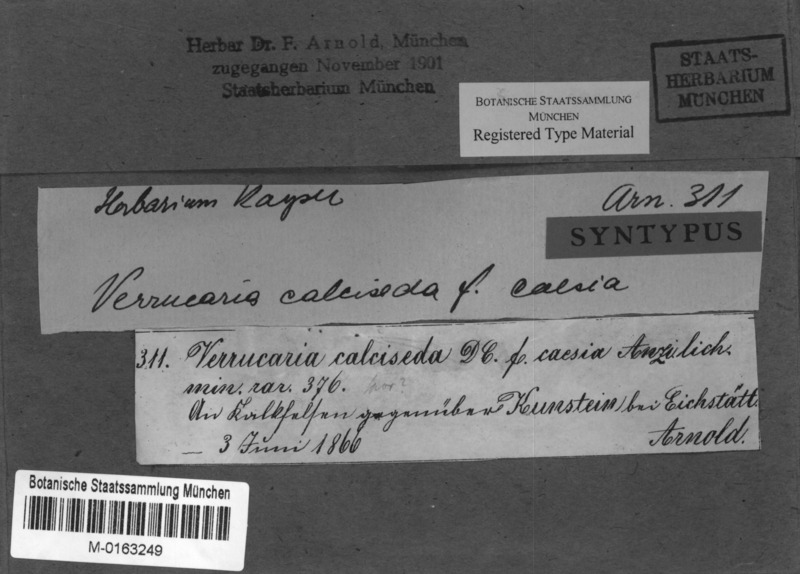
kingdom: Fungi
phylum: Ascomycota
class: Eurotiomycetes
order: Verrucariales
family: Verrucariaceae
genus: Bagliettoa
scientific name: Bagliettoa baldensis
